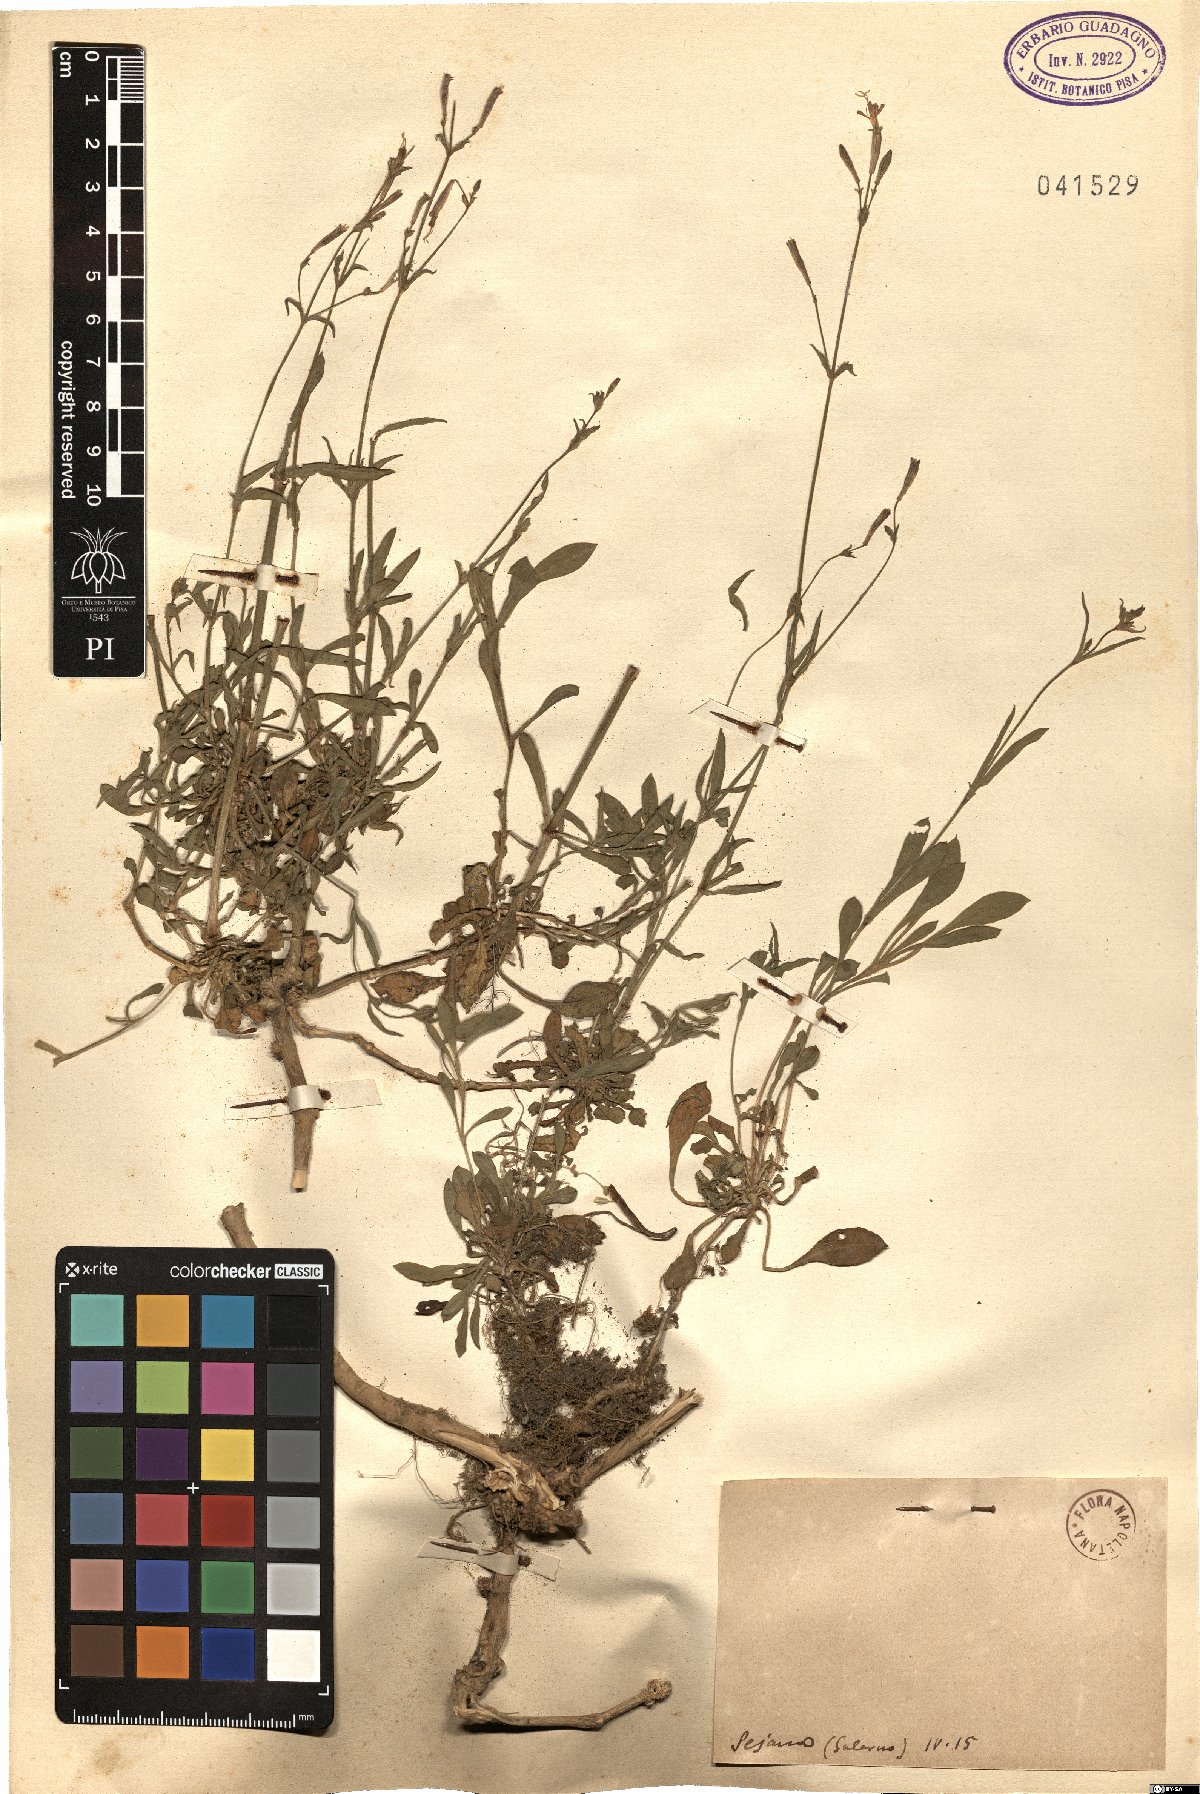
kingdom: Plantae
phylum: Tracheophyta
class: Magnoliopsida
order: Caryophyllales
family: Caryophyllaceae
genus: Silene
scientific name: Silene
